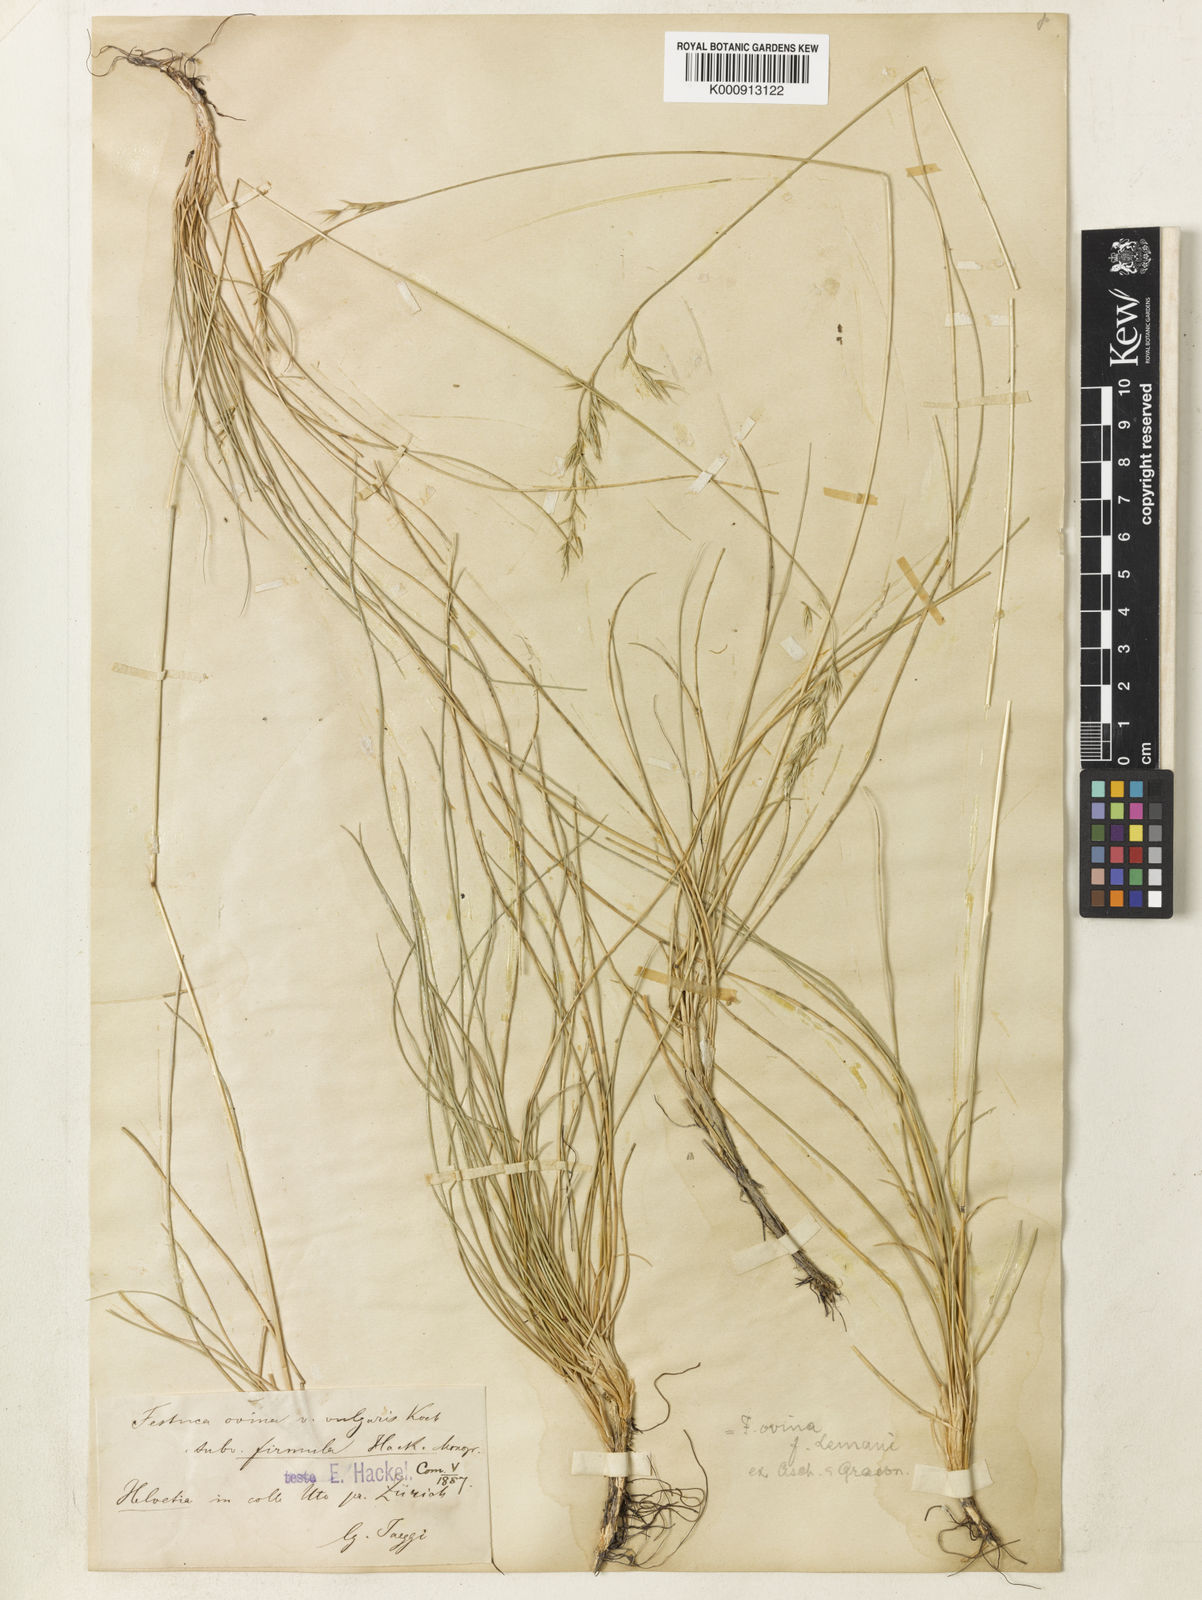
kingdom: Plantae
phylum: Tracheophyta
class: Liliopsida
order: Poales
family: Poaceae
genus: Festuca
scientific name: Festuca guestfalica
